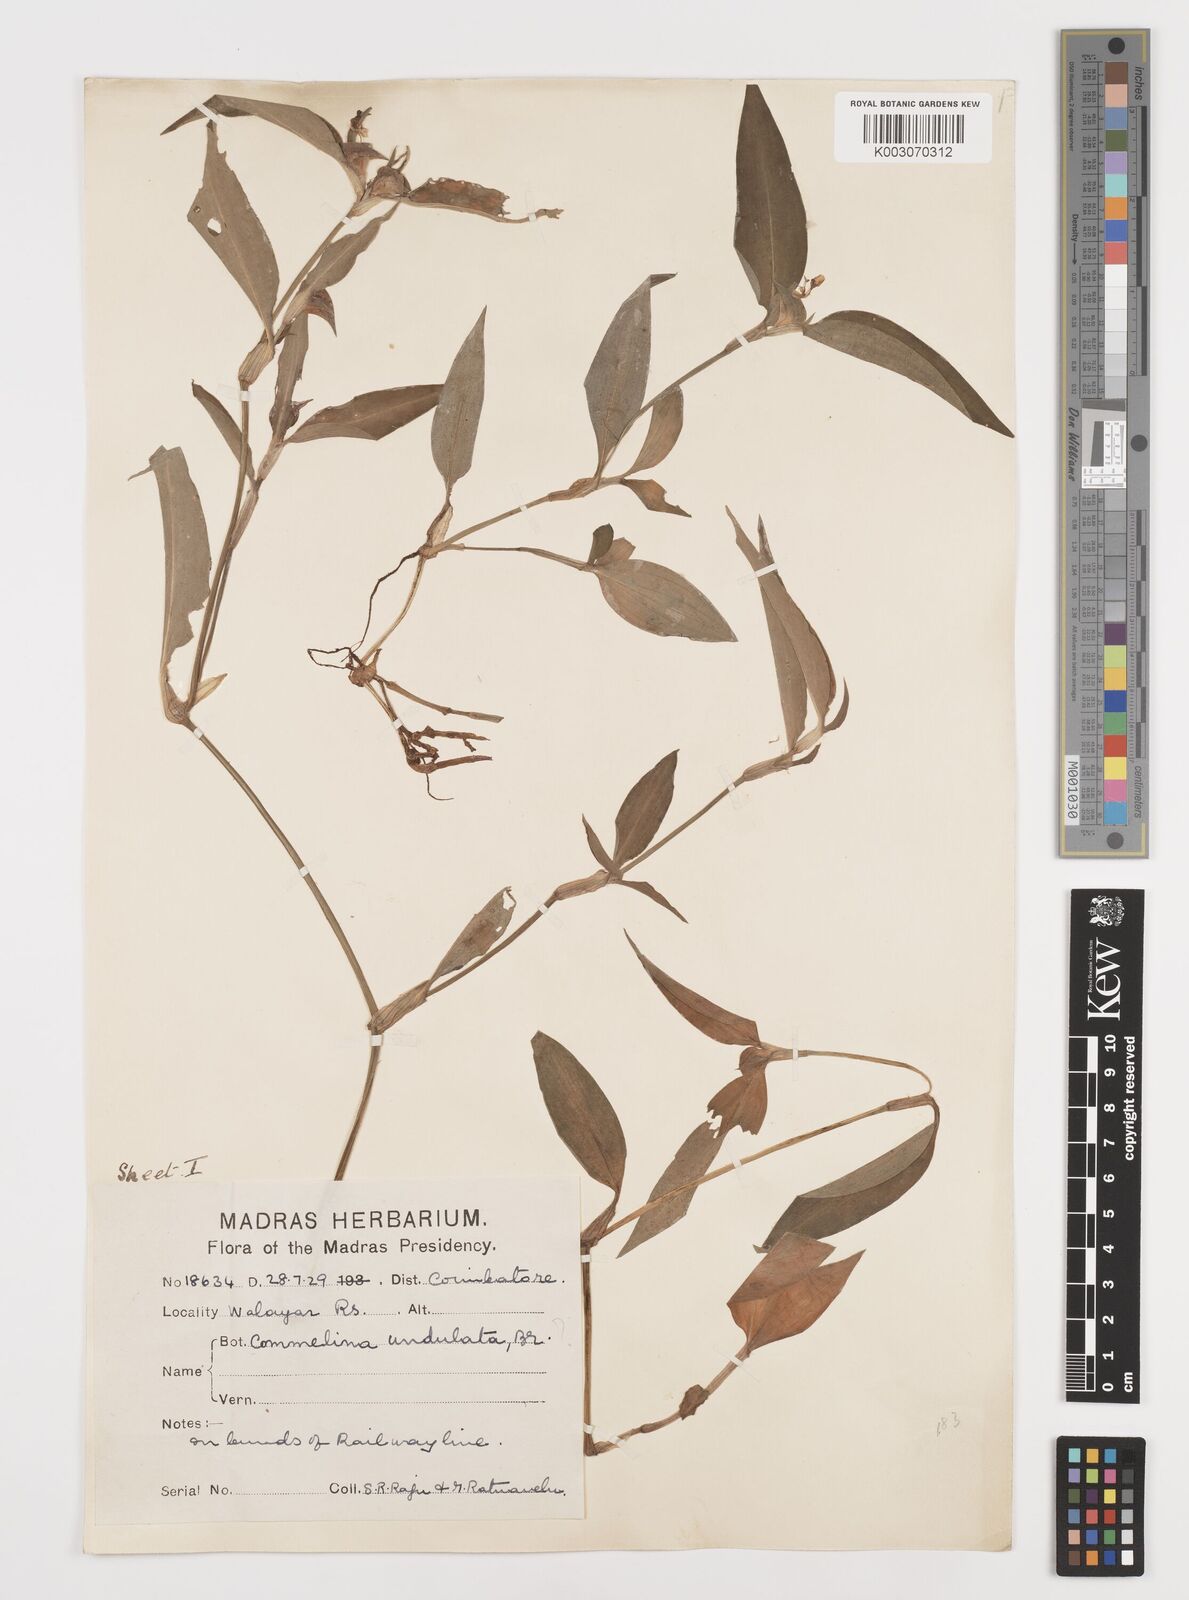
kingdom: Plantae
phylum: Tracheophyta
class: Liliopsida
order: Commelinales
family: Commelinaceae
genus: Commelina
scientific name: Commelina chamissonis
